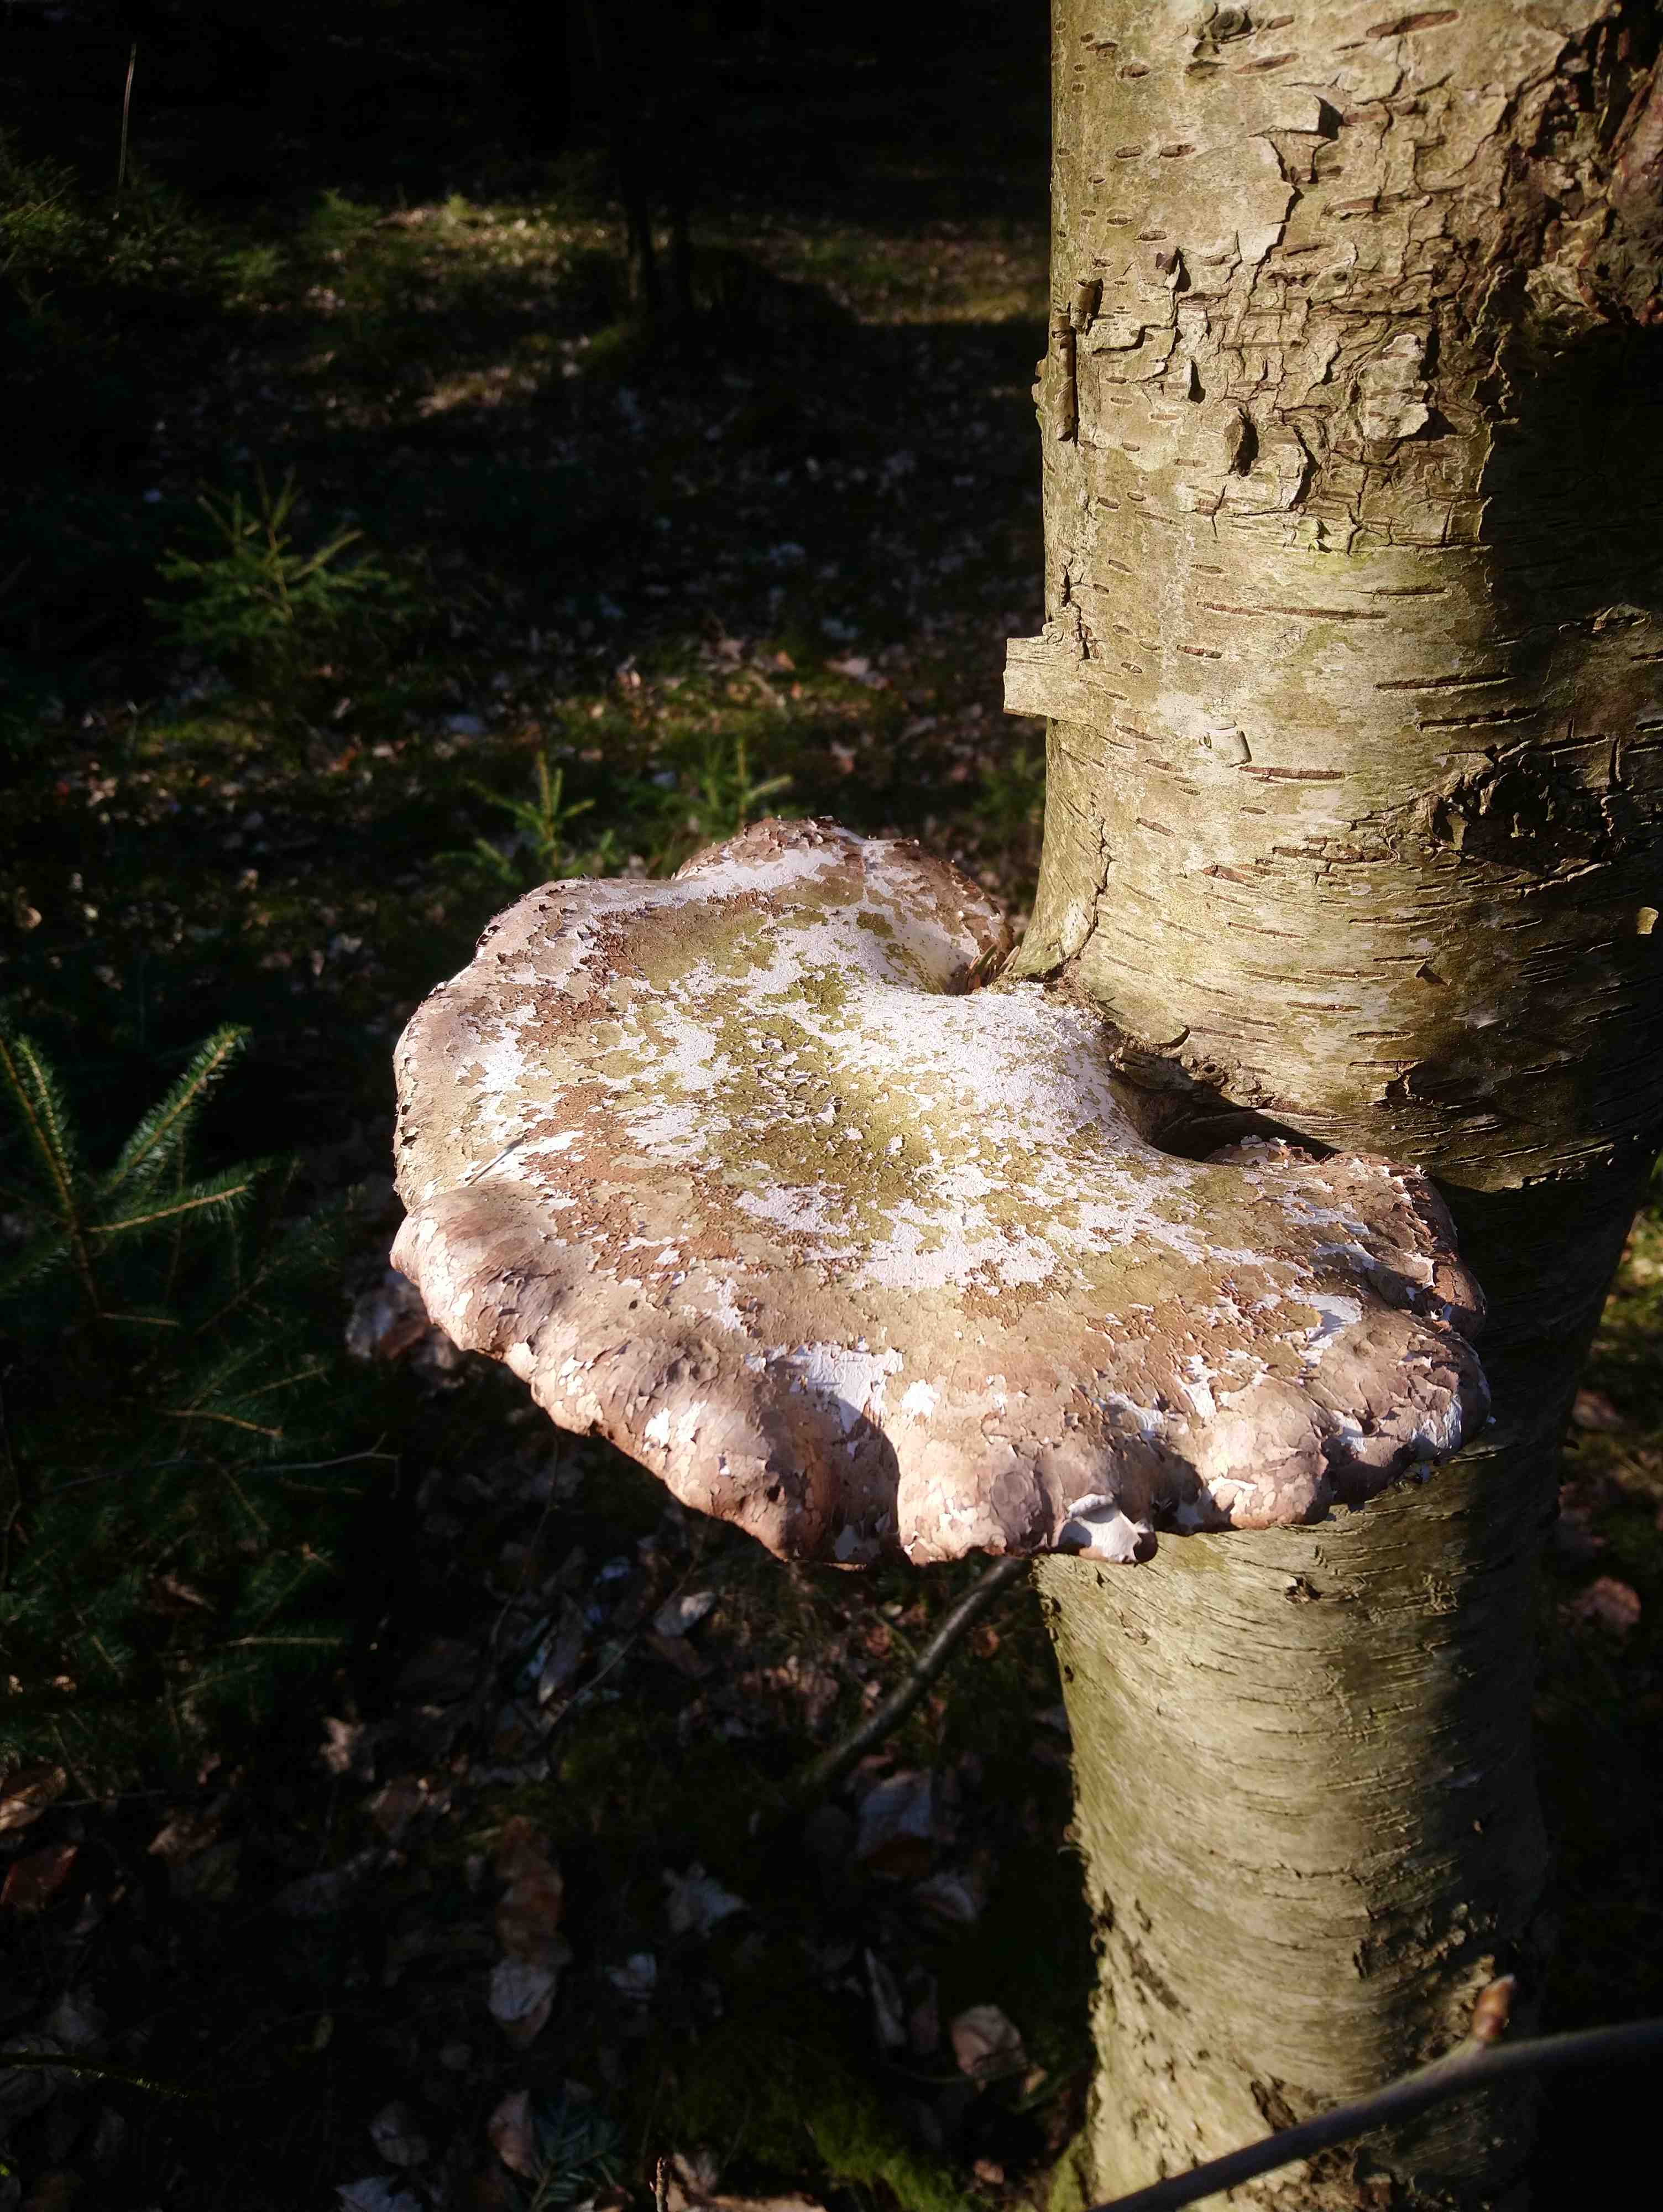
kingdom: Fungi
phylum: Basidiomycota
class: Agaricomycetes
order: Polyporales
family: Fomitopsidaceae
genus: Fomitopsis
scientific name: Fomitopsis betulina
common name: birkeporesvamp
